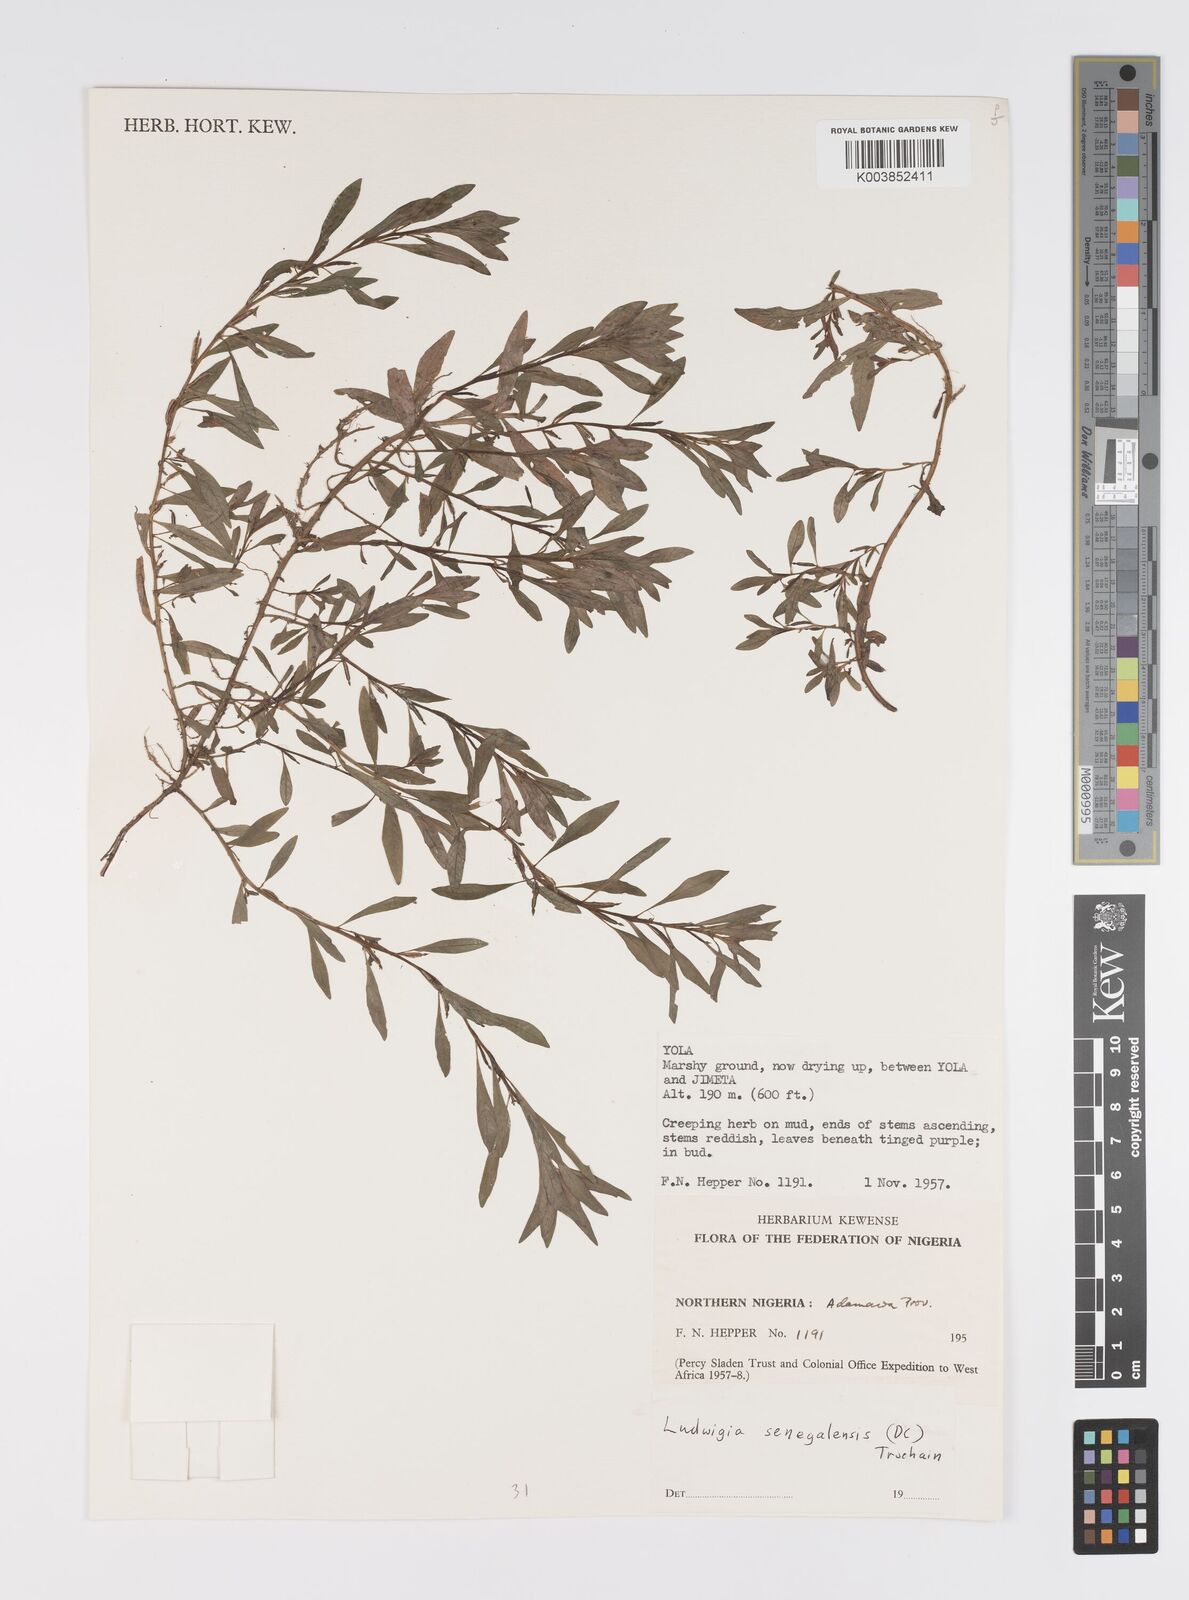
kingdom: Plantae
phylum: Tracheophyta
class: Magnoliopsida
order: Myrtales
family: Onagraceae
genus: Ludwigia
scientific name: Ludwigia senegalensis
